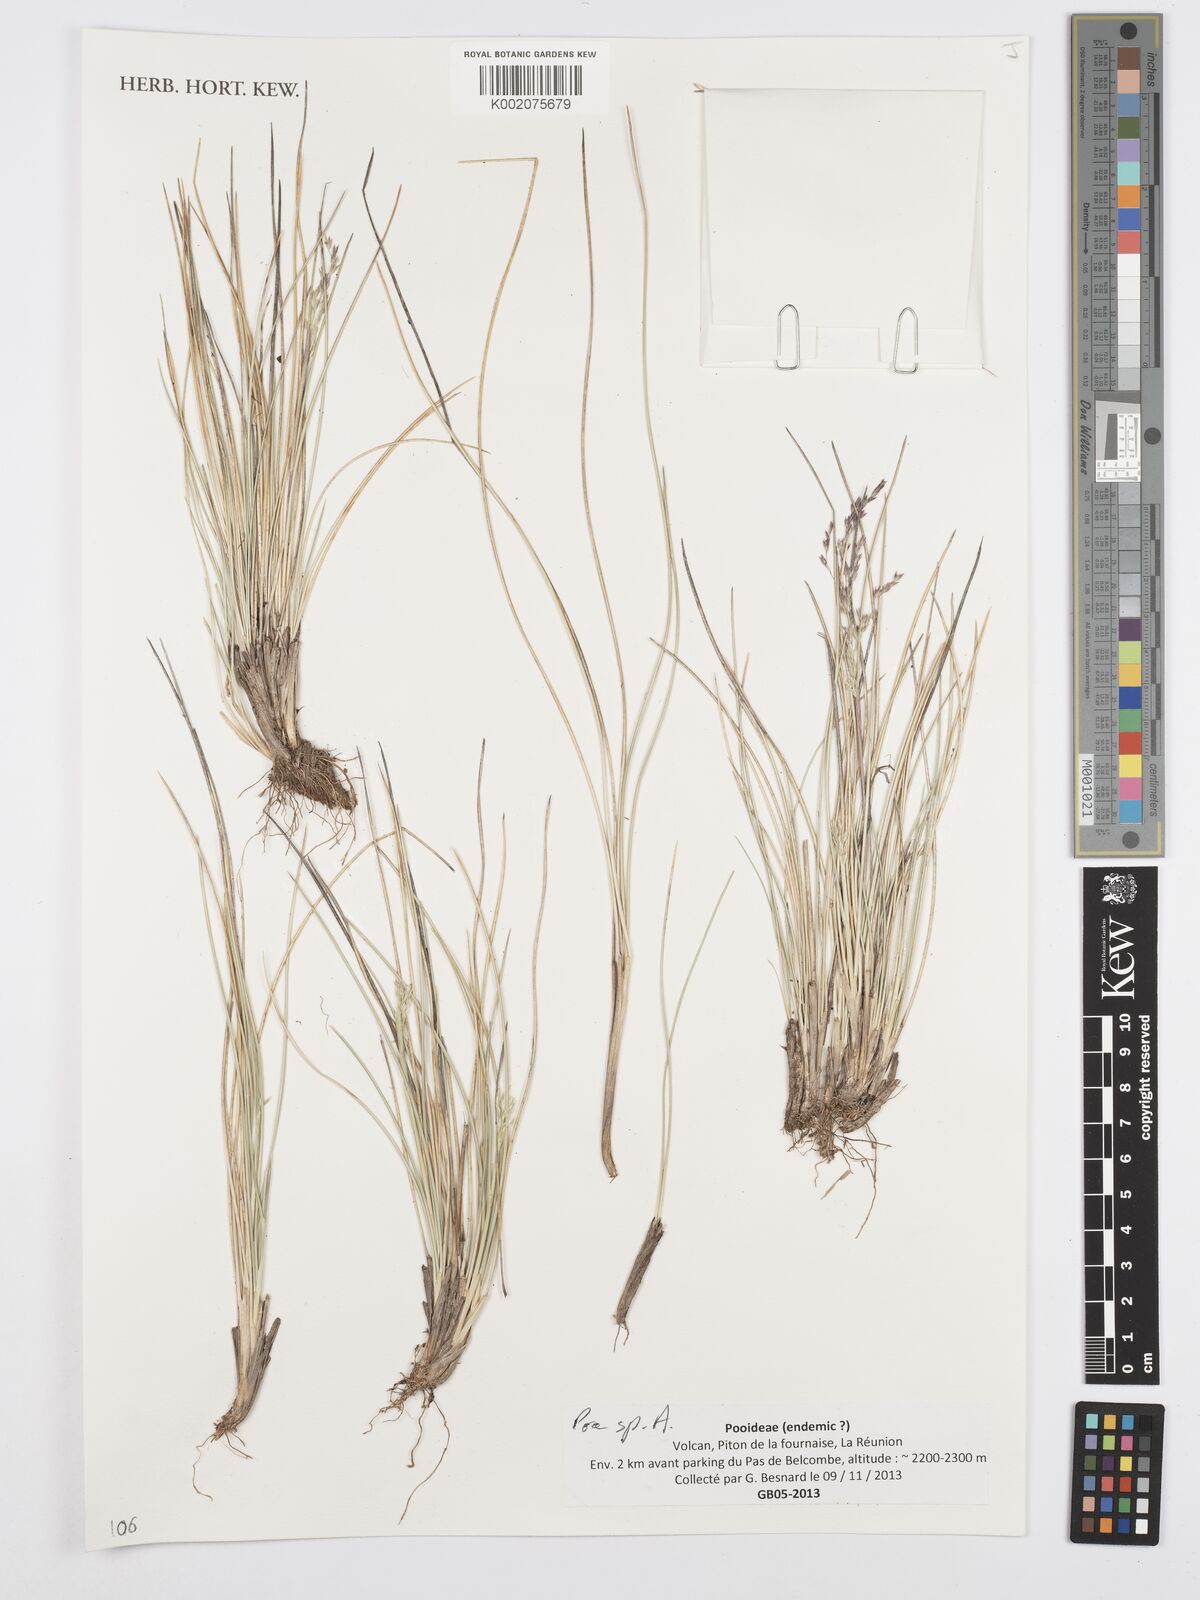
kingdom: Plantae
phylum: Tracheophyta
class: Liliopsida
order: Poales
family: Poaceae
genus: Poa
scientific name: Poa teretifolia
